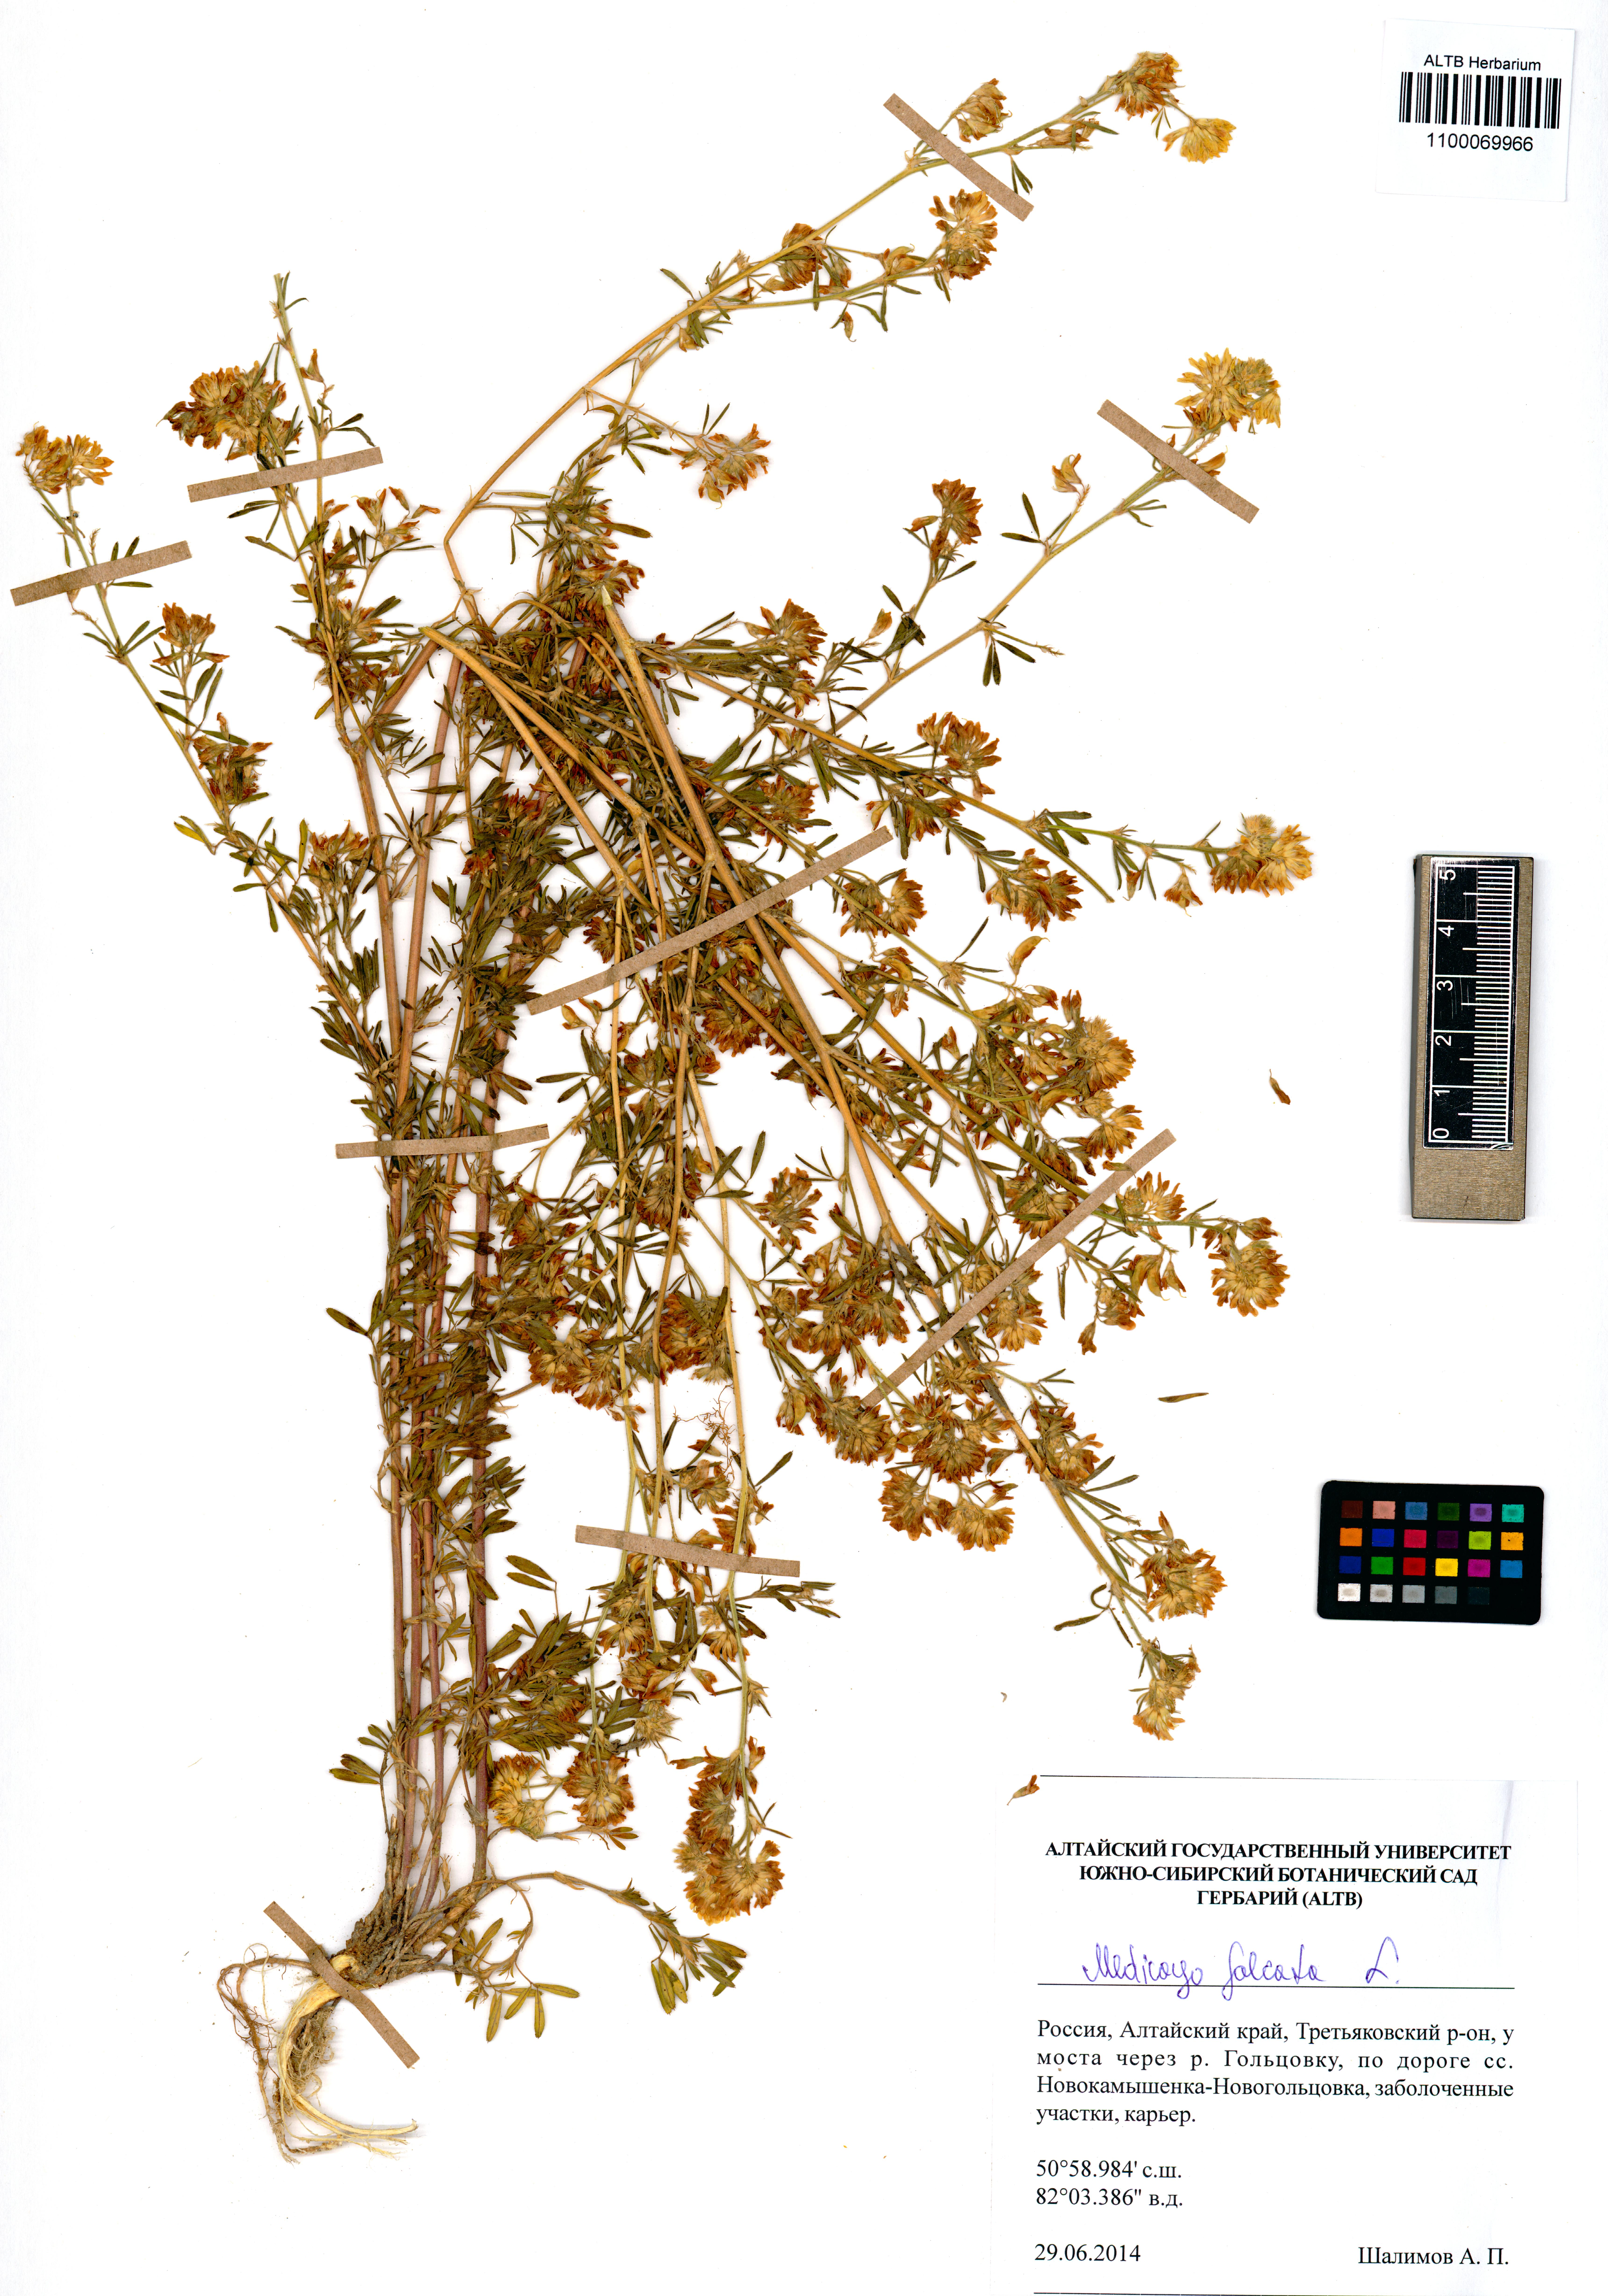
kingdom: Plantae
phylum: Tracheophyta
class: Magnoliopsida
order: Fabales
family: Fabaceae
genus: Medicago
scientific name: Medicago falcata
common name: Sickle medick
